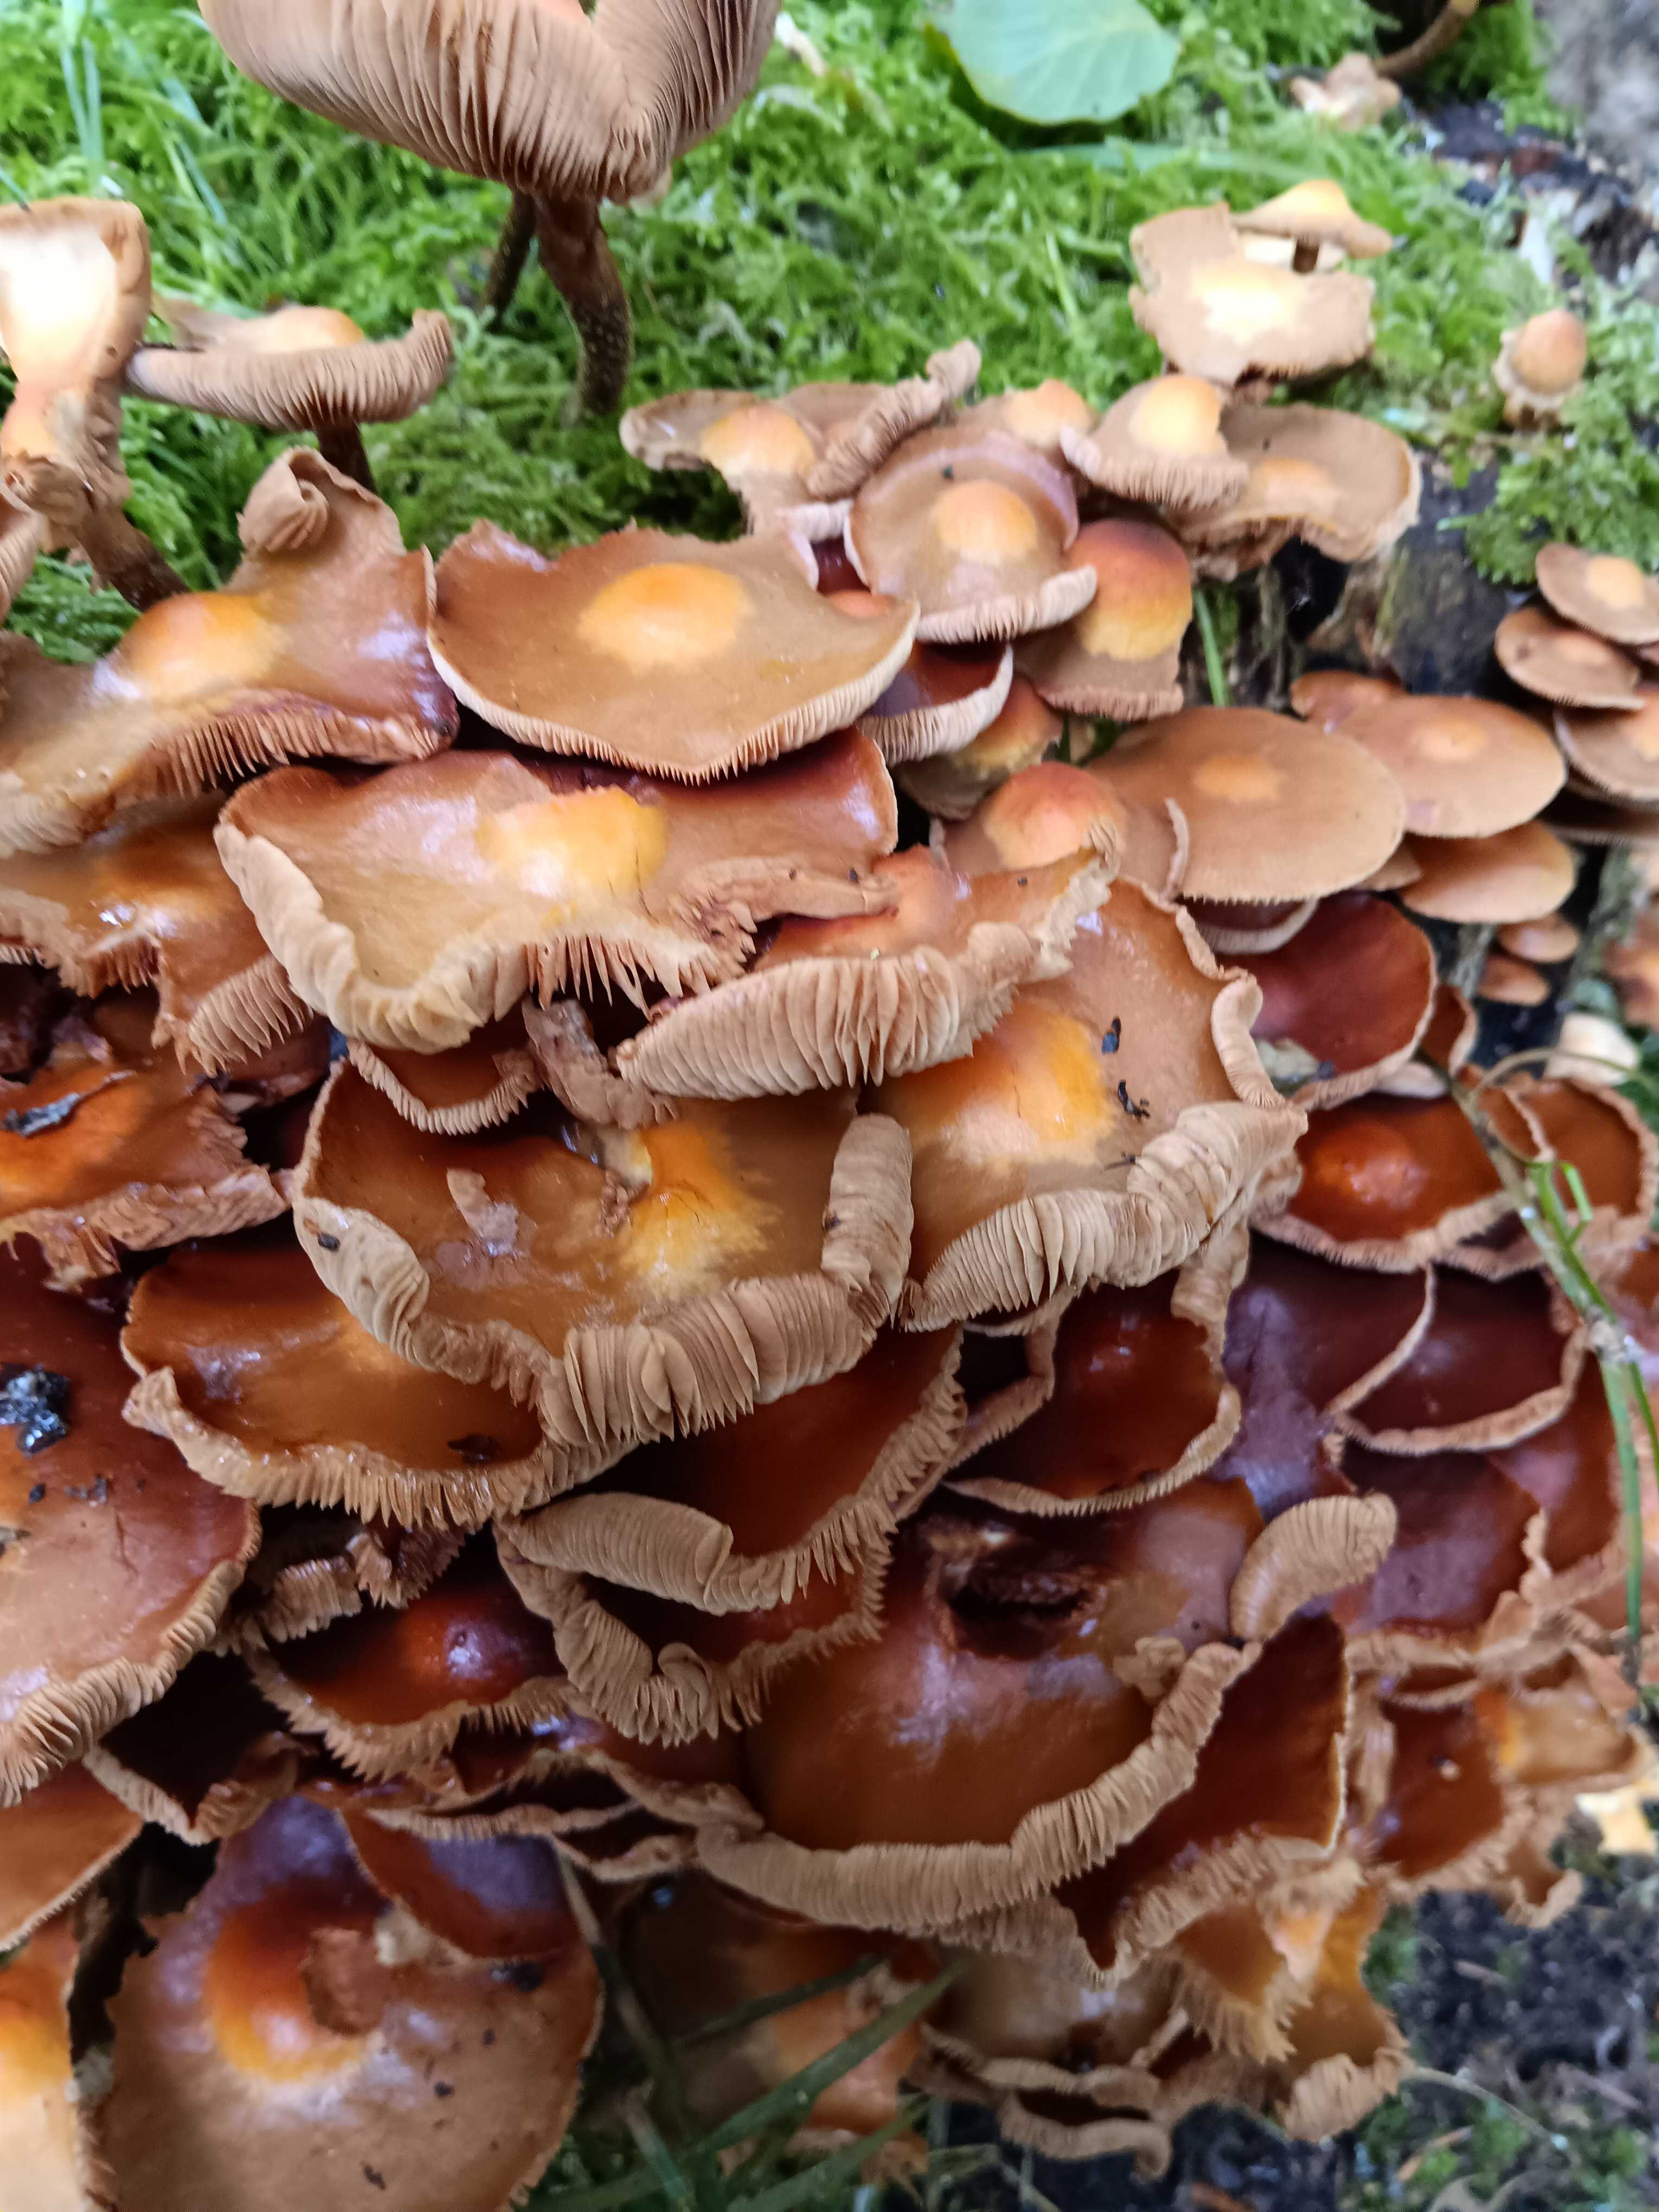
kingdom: Fungi
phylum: Basidiomycota
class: Agaricomycetes
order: Agaricales
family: Strophariaceae
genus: Kuehneromyces
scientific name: Kuehneromyces mutabilis
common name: foranderlig skælhat
